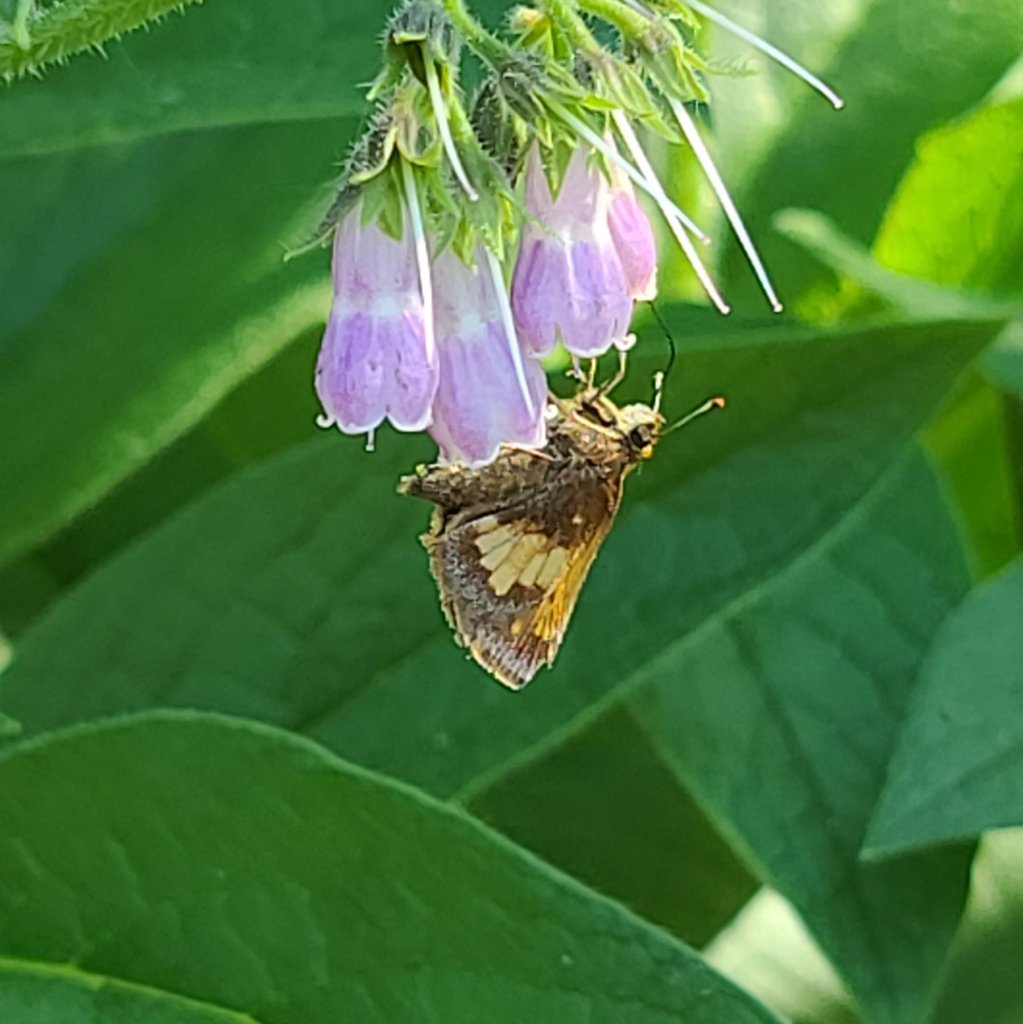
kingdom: Animalia
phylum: Arthropoda
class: Insecta
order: Lepidoptera
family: Hesperiidae
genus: Lon
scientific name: Lon hobomok
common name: Hobomok Skipper
